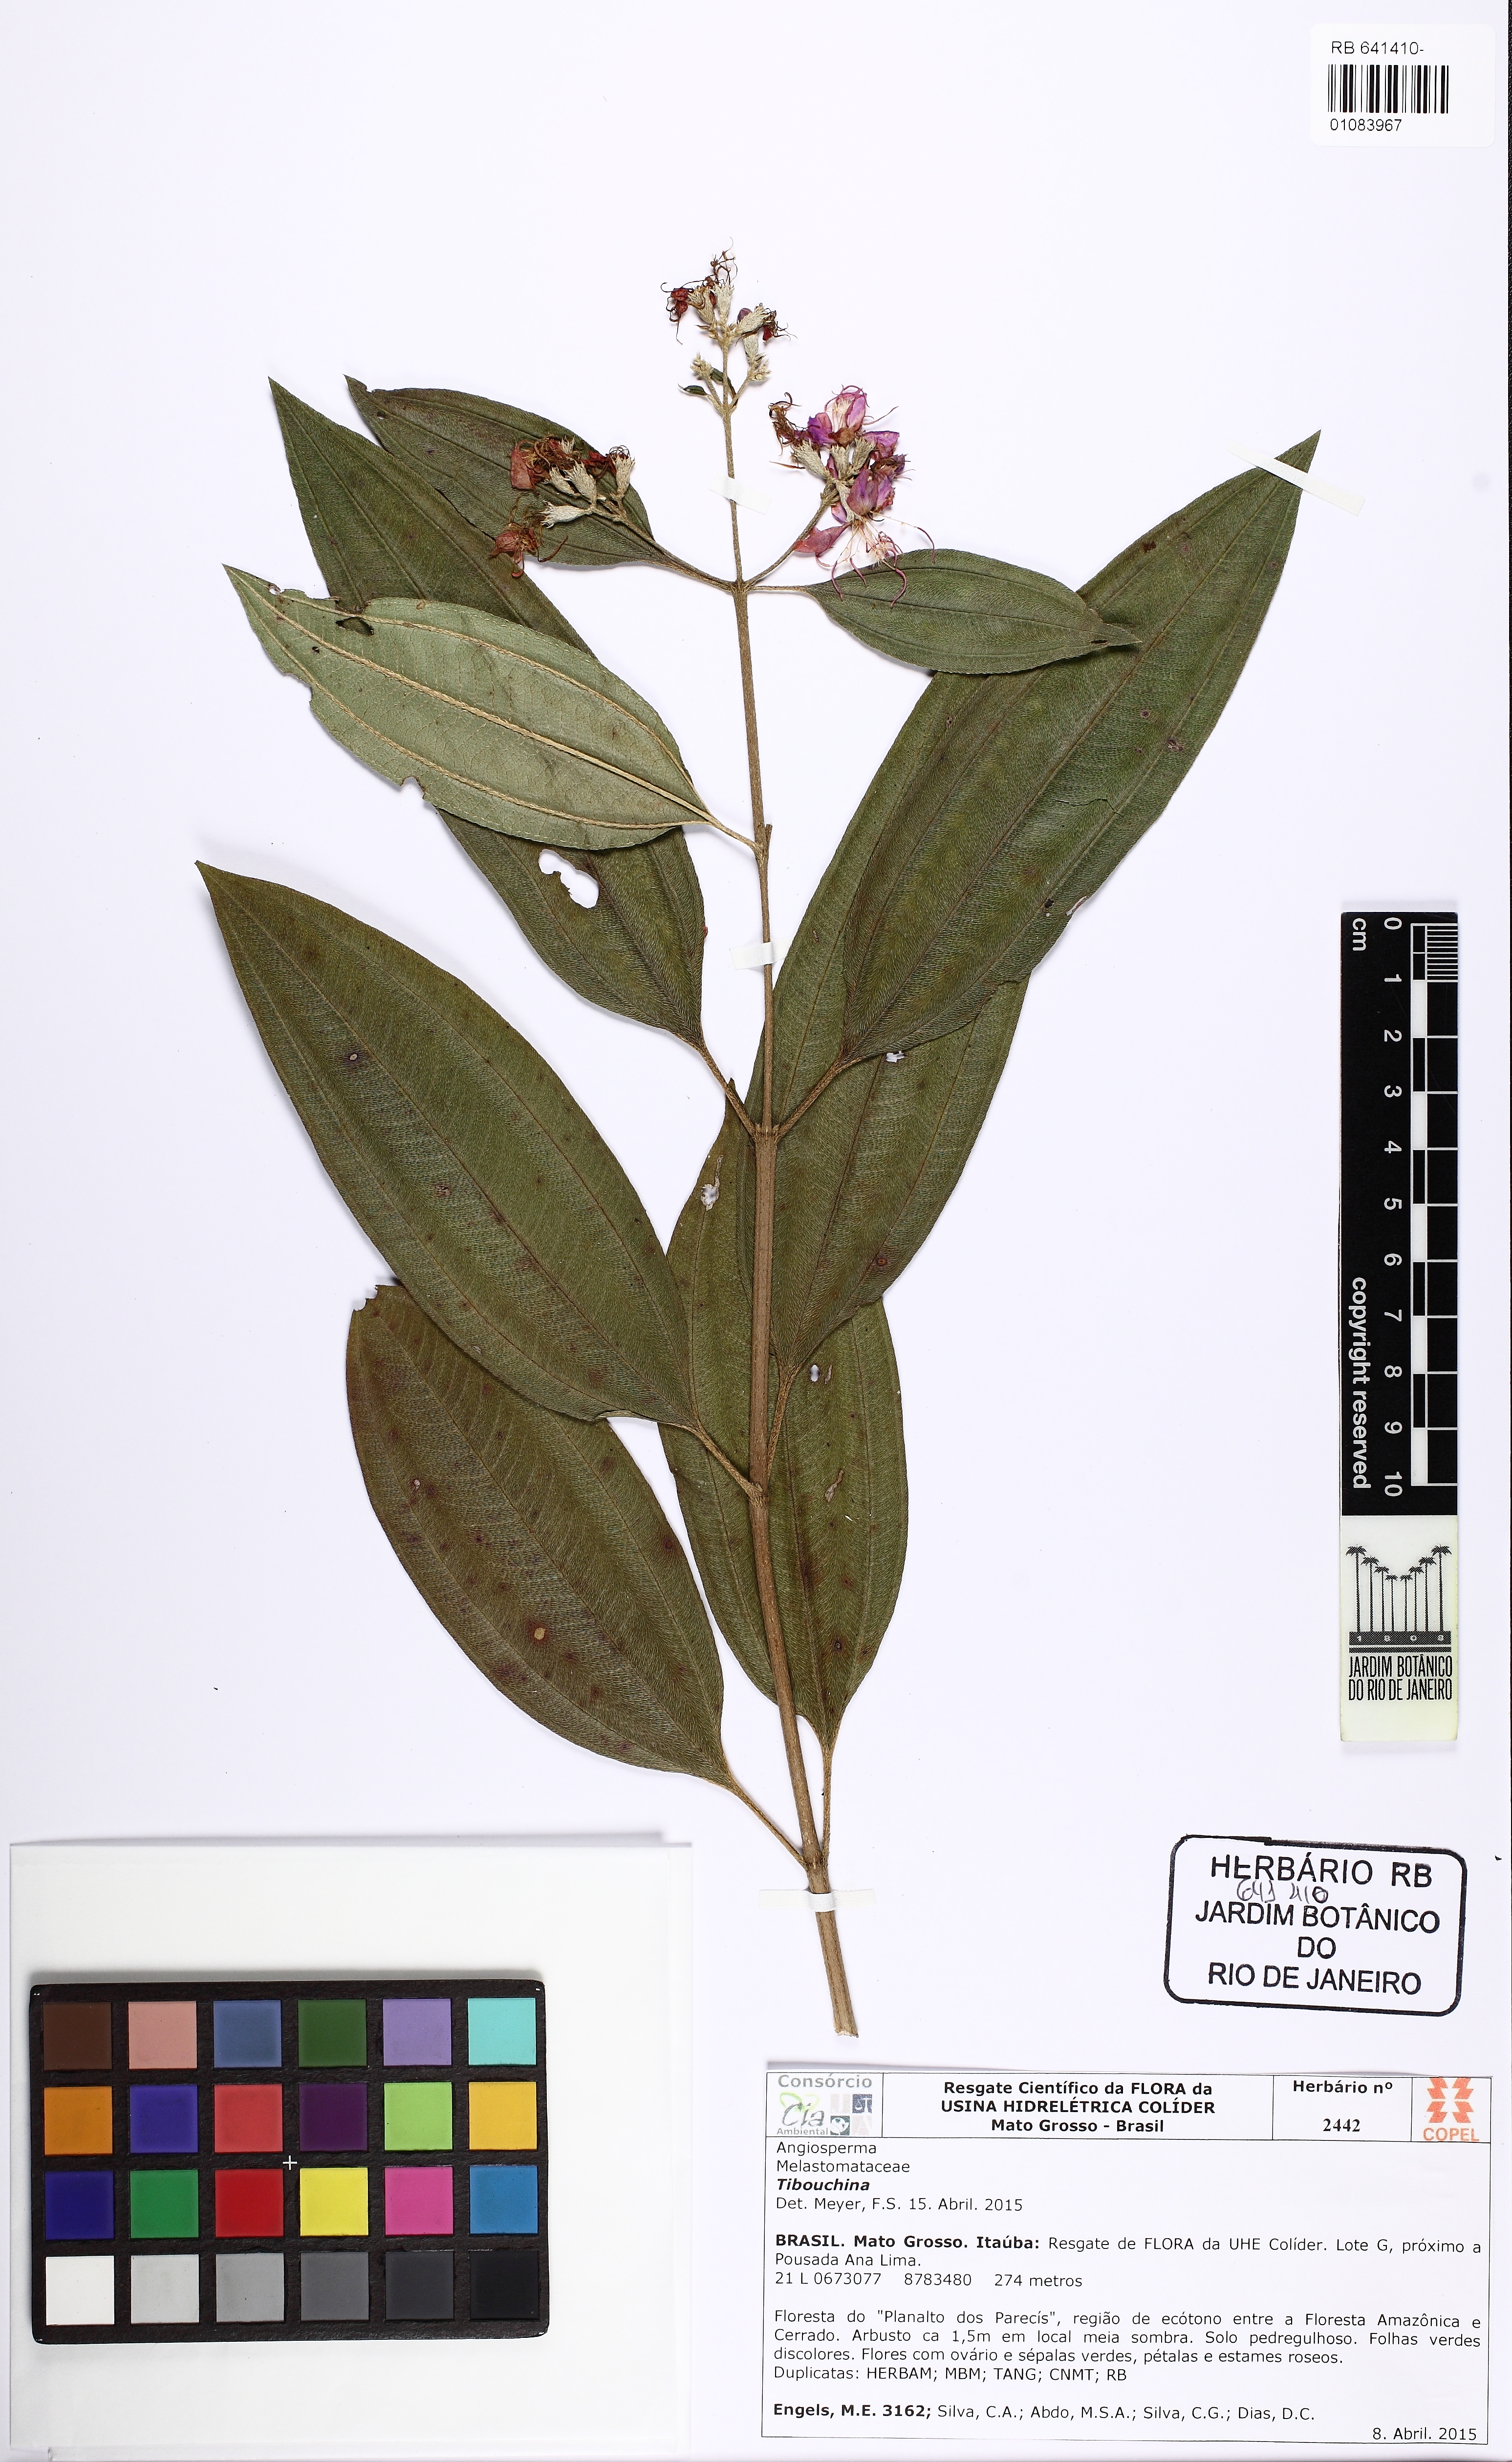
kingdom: Plantae
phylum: Tracheophyta
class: Magnoliopsida
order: Myrtales
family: Melastomataceae
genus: Tibouchina
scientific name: Tibouchina
